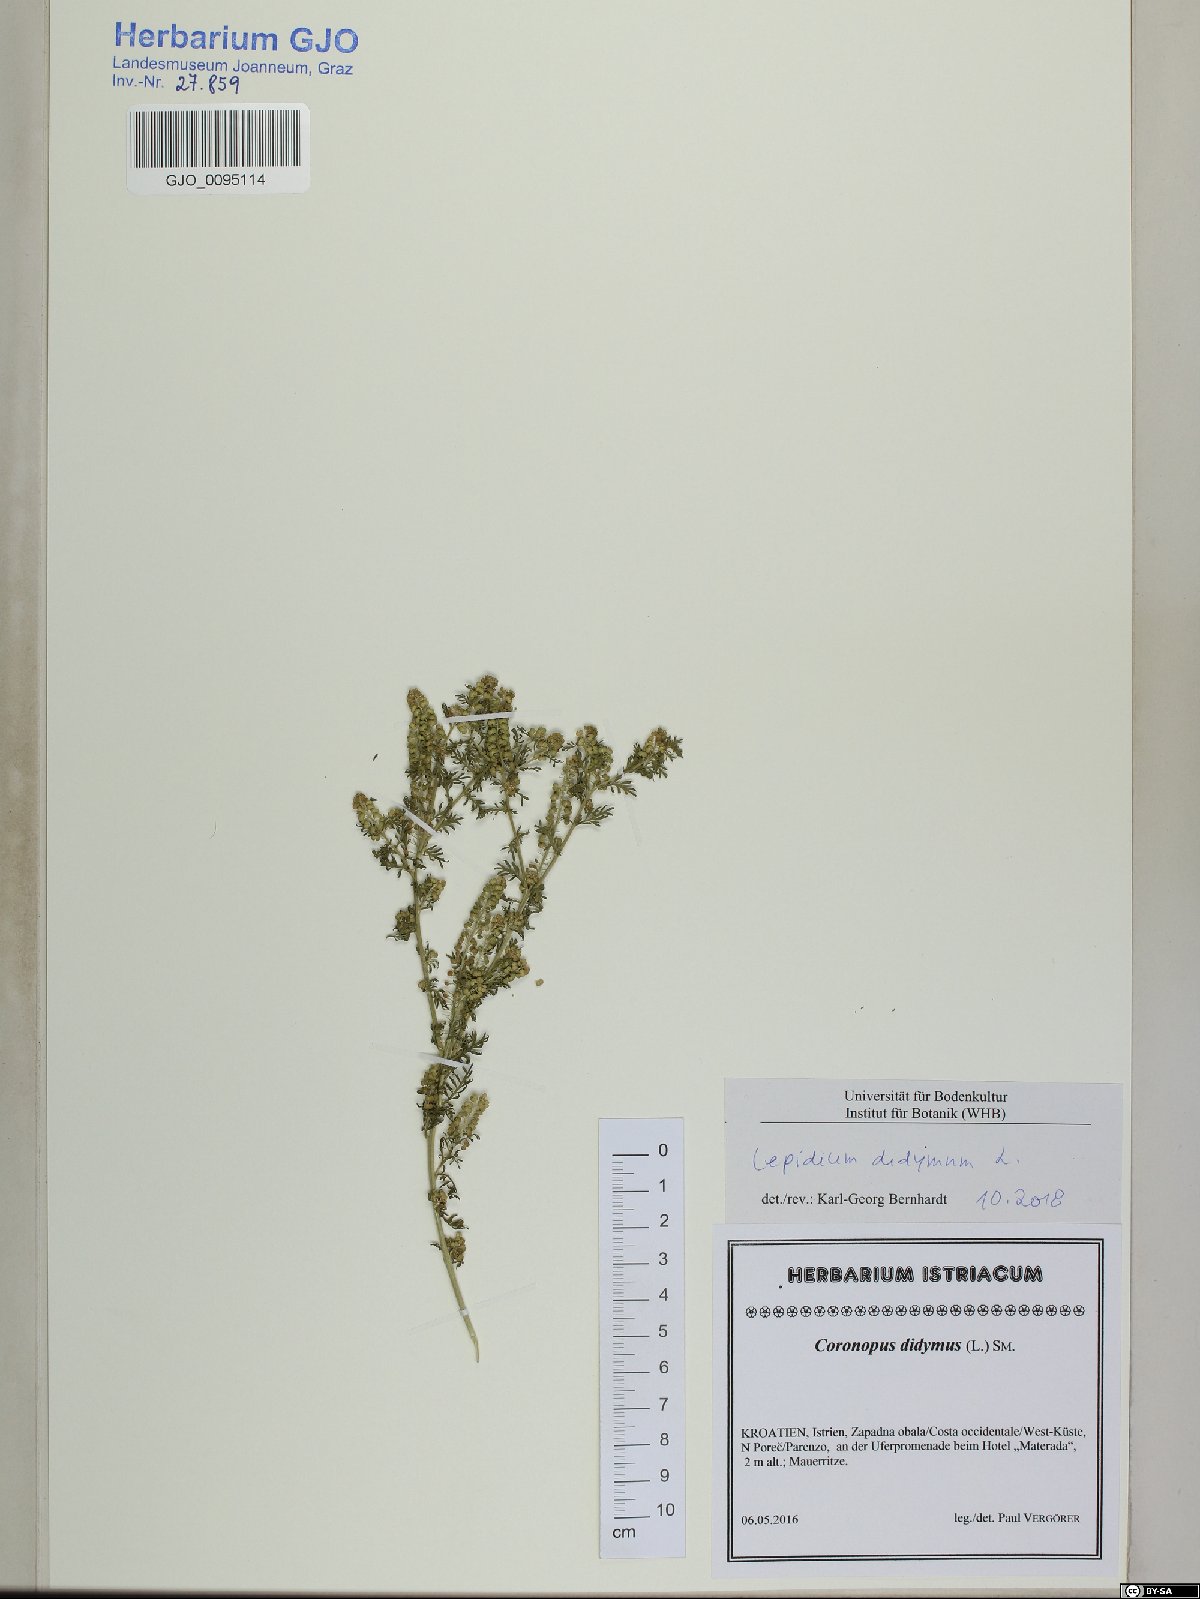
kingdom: Plantae
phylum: Tracheophyta
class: Magnoliopsida
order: Brassicales
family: Brassicaceae
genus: Lepidium
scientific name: Lepidium didymum
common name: Lesser swinecress
